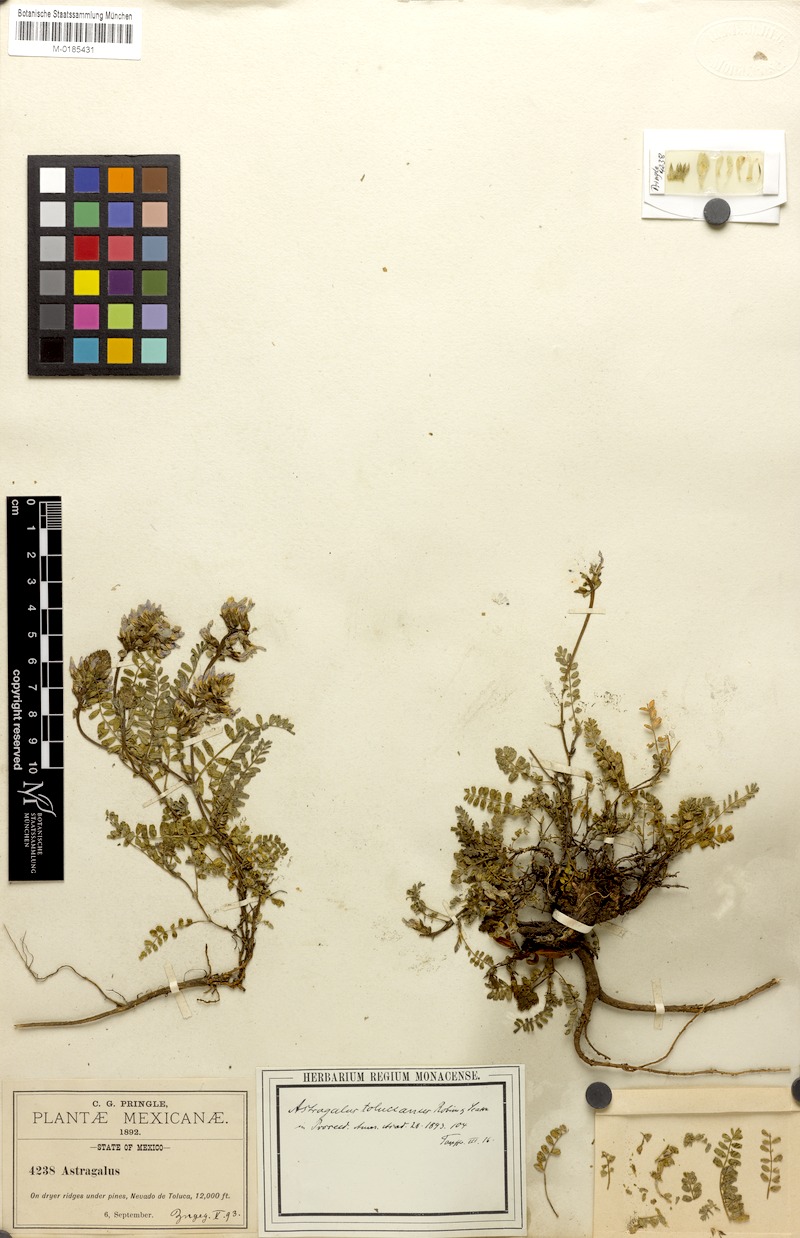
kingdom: Plantae
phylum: Tracheophyta
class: Magnoliopsida
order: Fabales
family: Fabaceae
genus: Astragalus
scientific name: Astragalus tolucanus
